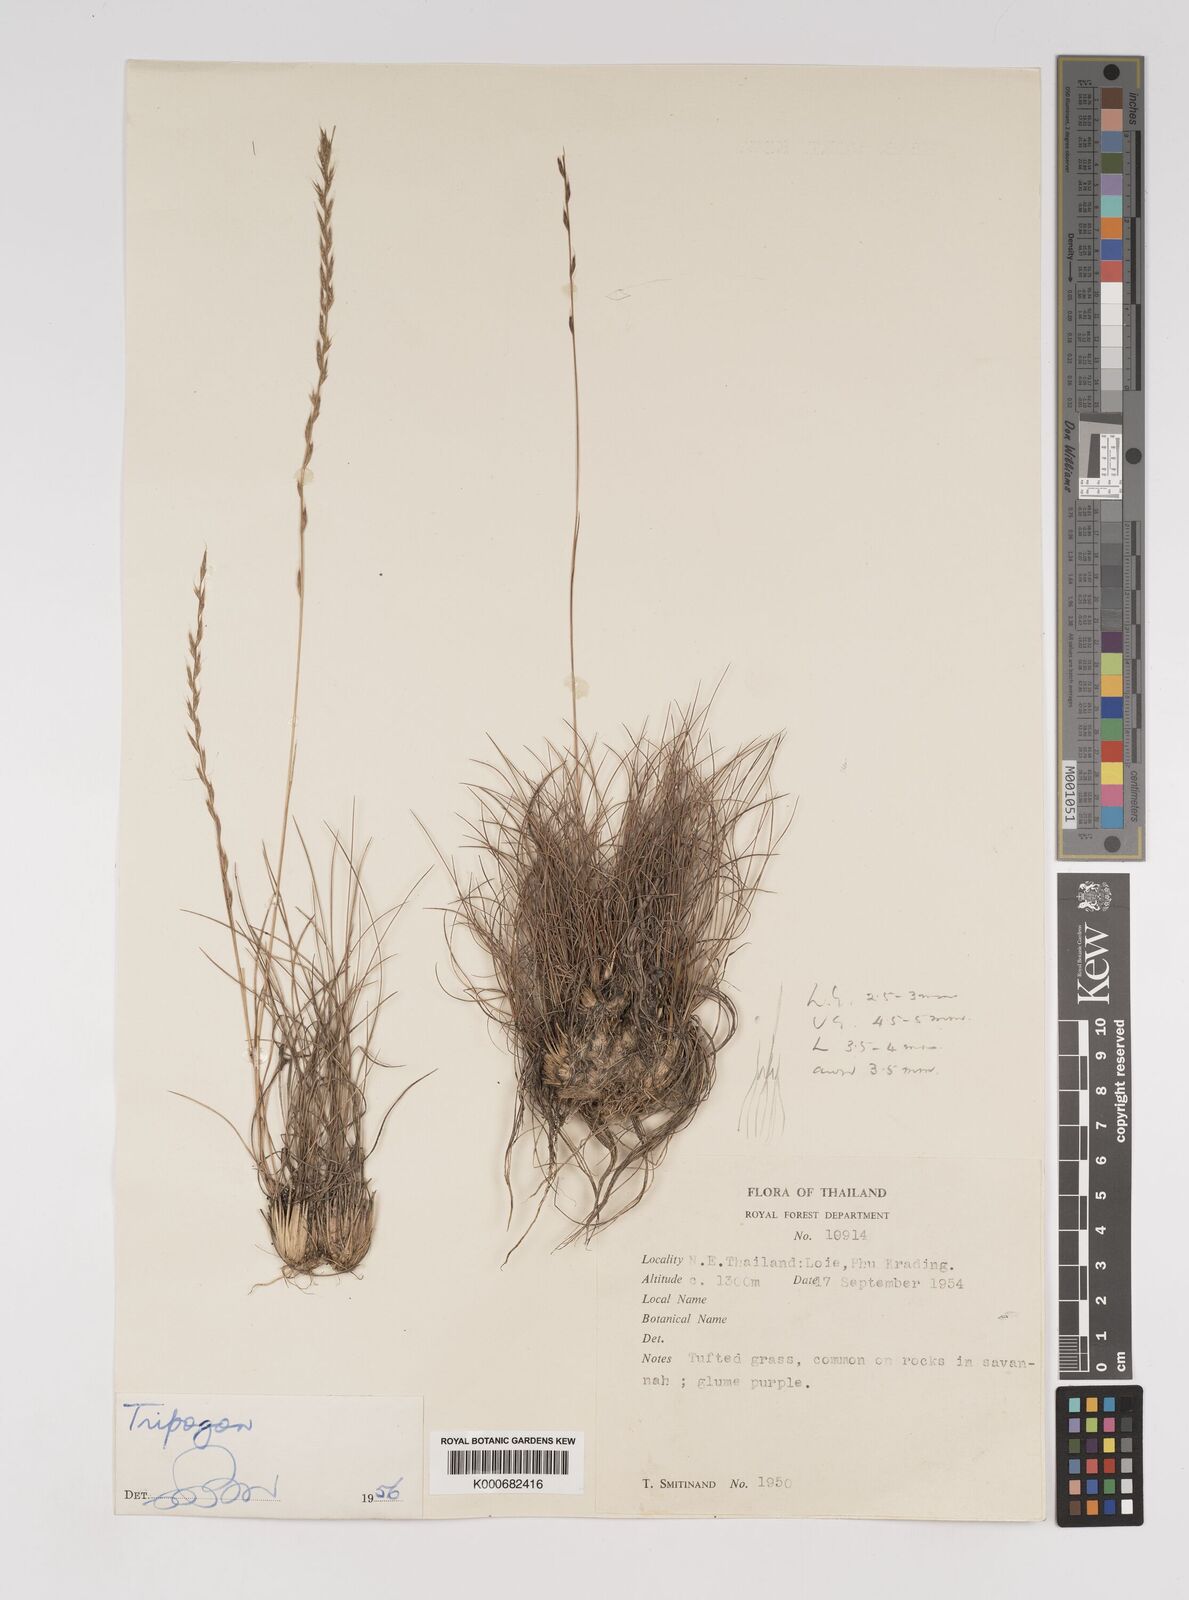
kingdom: Plantae
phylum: Tracheophyta
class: Liliopsida
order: Poales
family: Poaceae
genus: Tripogon
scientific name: Tripogon
